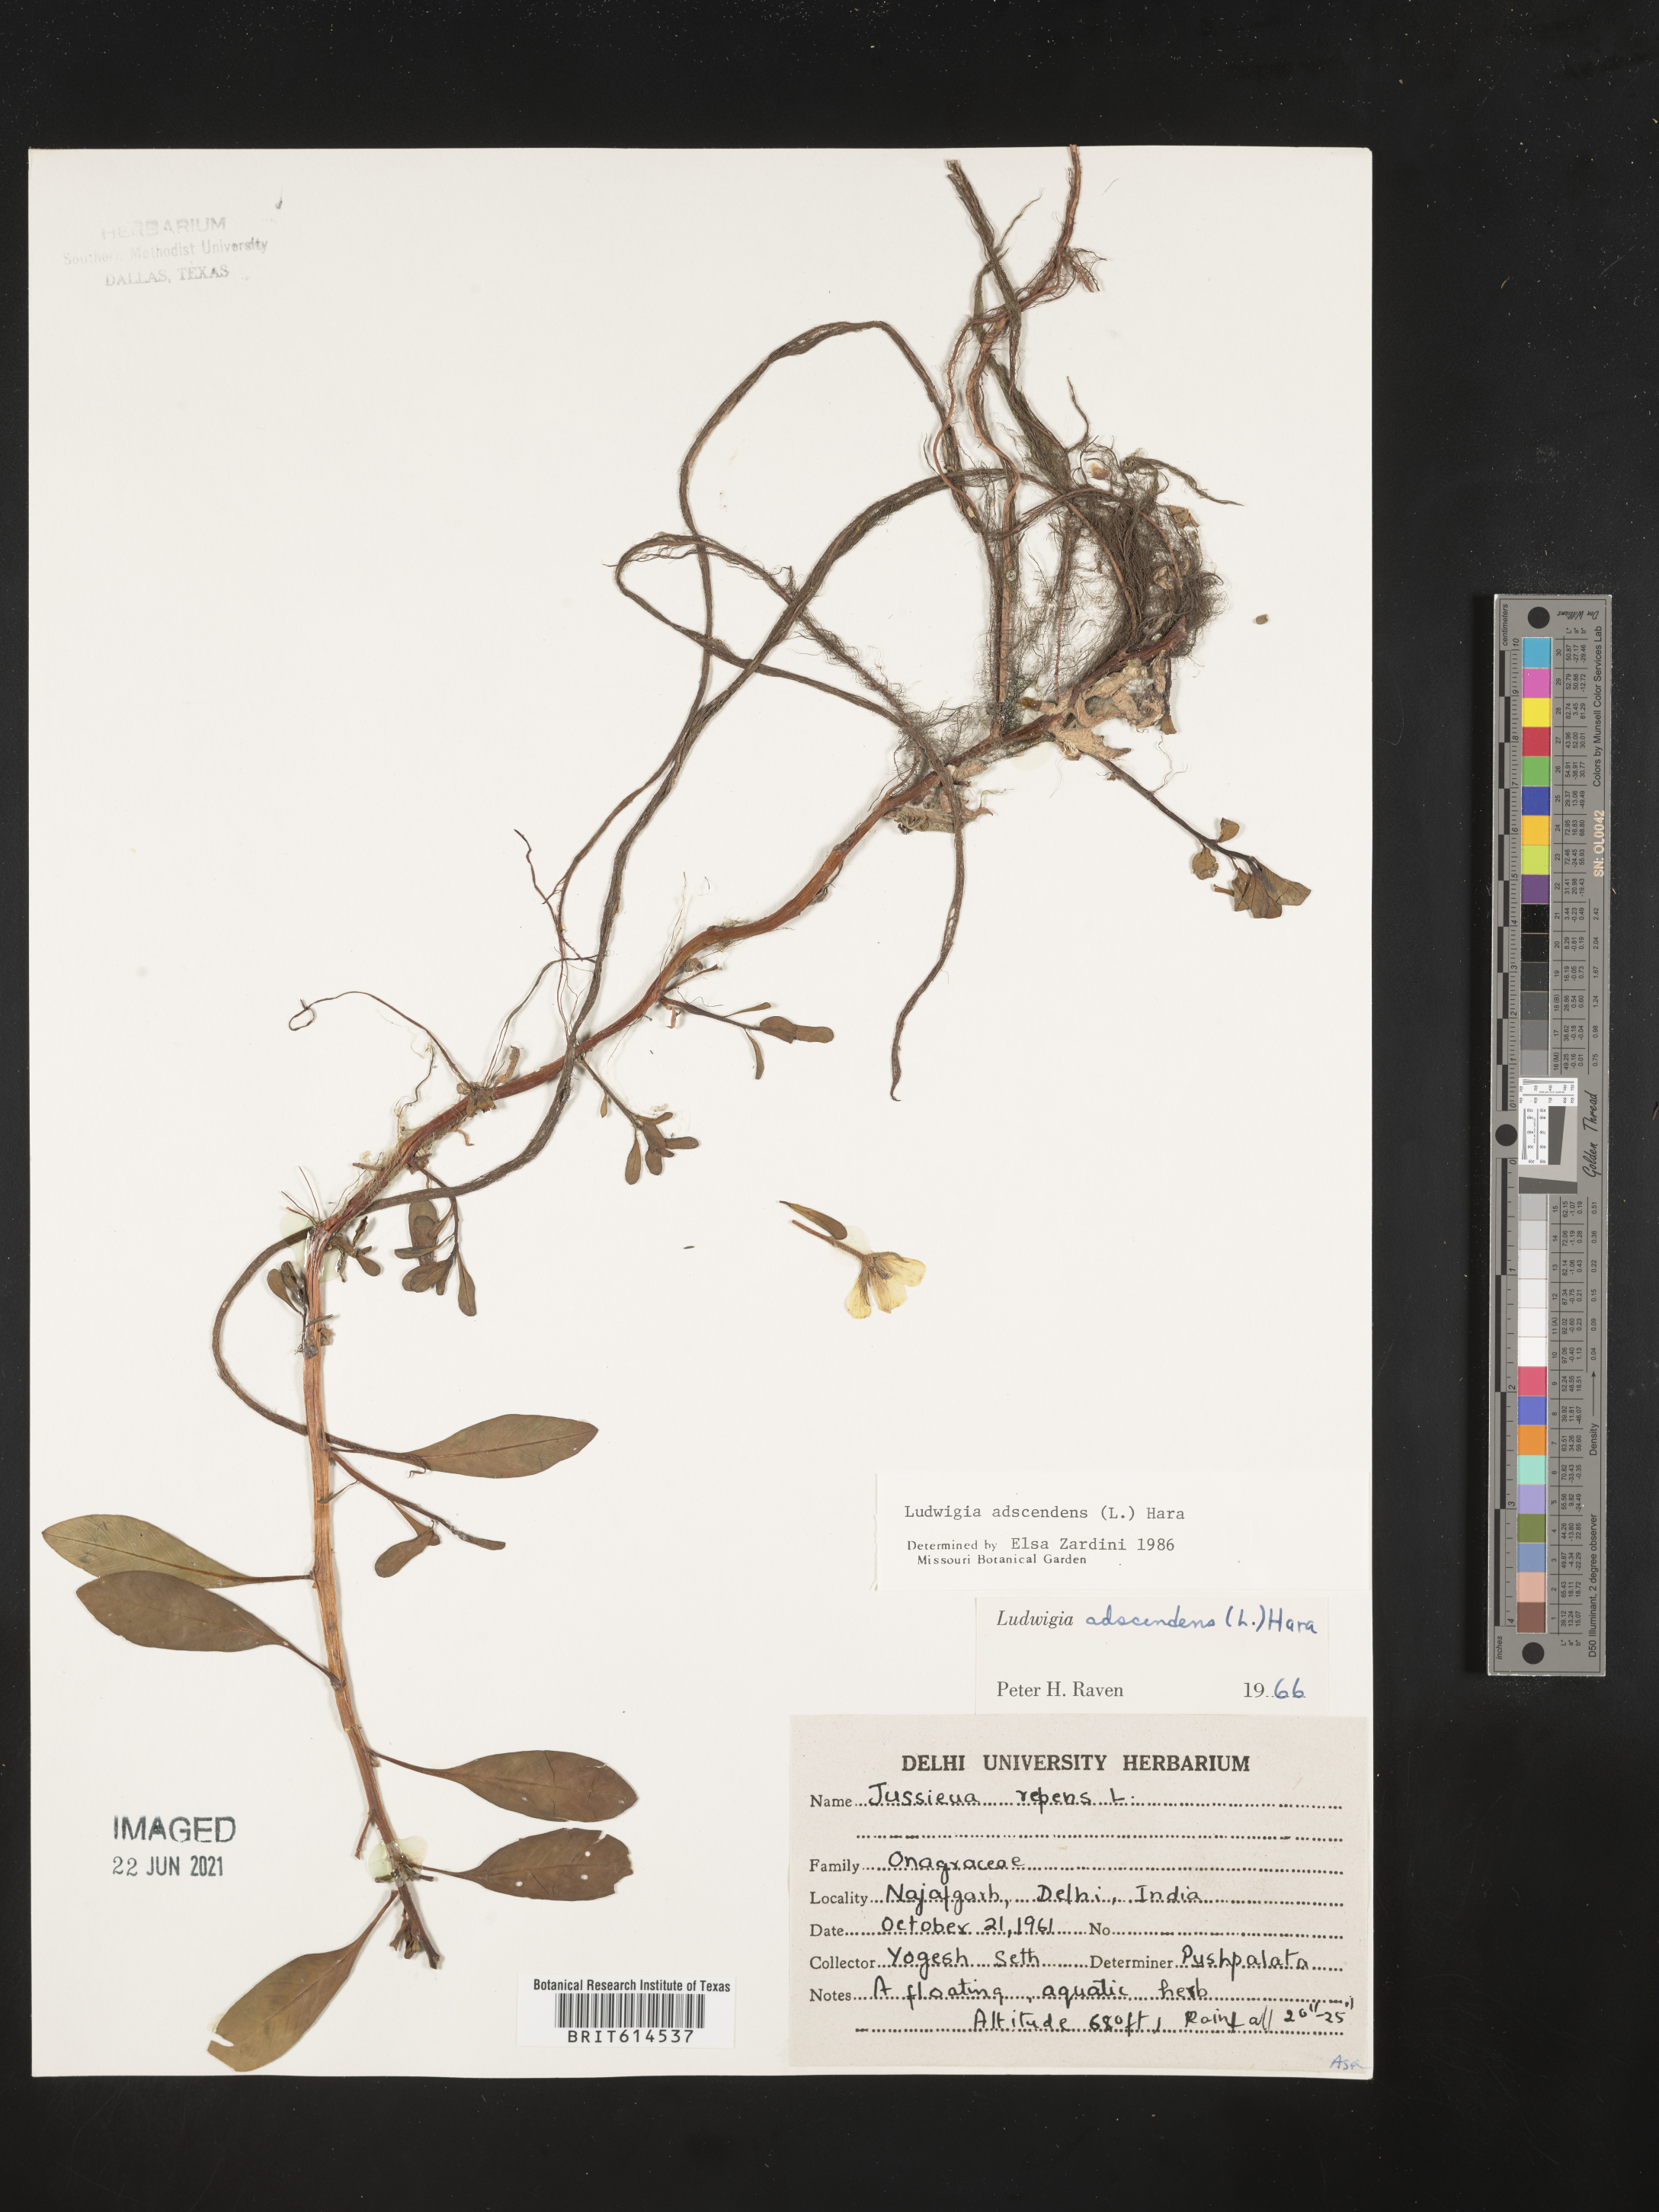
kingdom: Plantae
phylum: Tracheophyta
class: Magnoliopsida
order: Myrtales
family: Onagraceae
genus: Ludwigia
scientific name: Ludwigia adscendens
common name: Creeping water primrose
